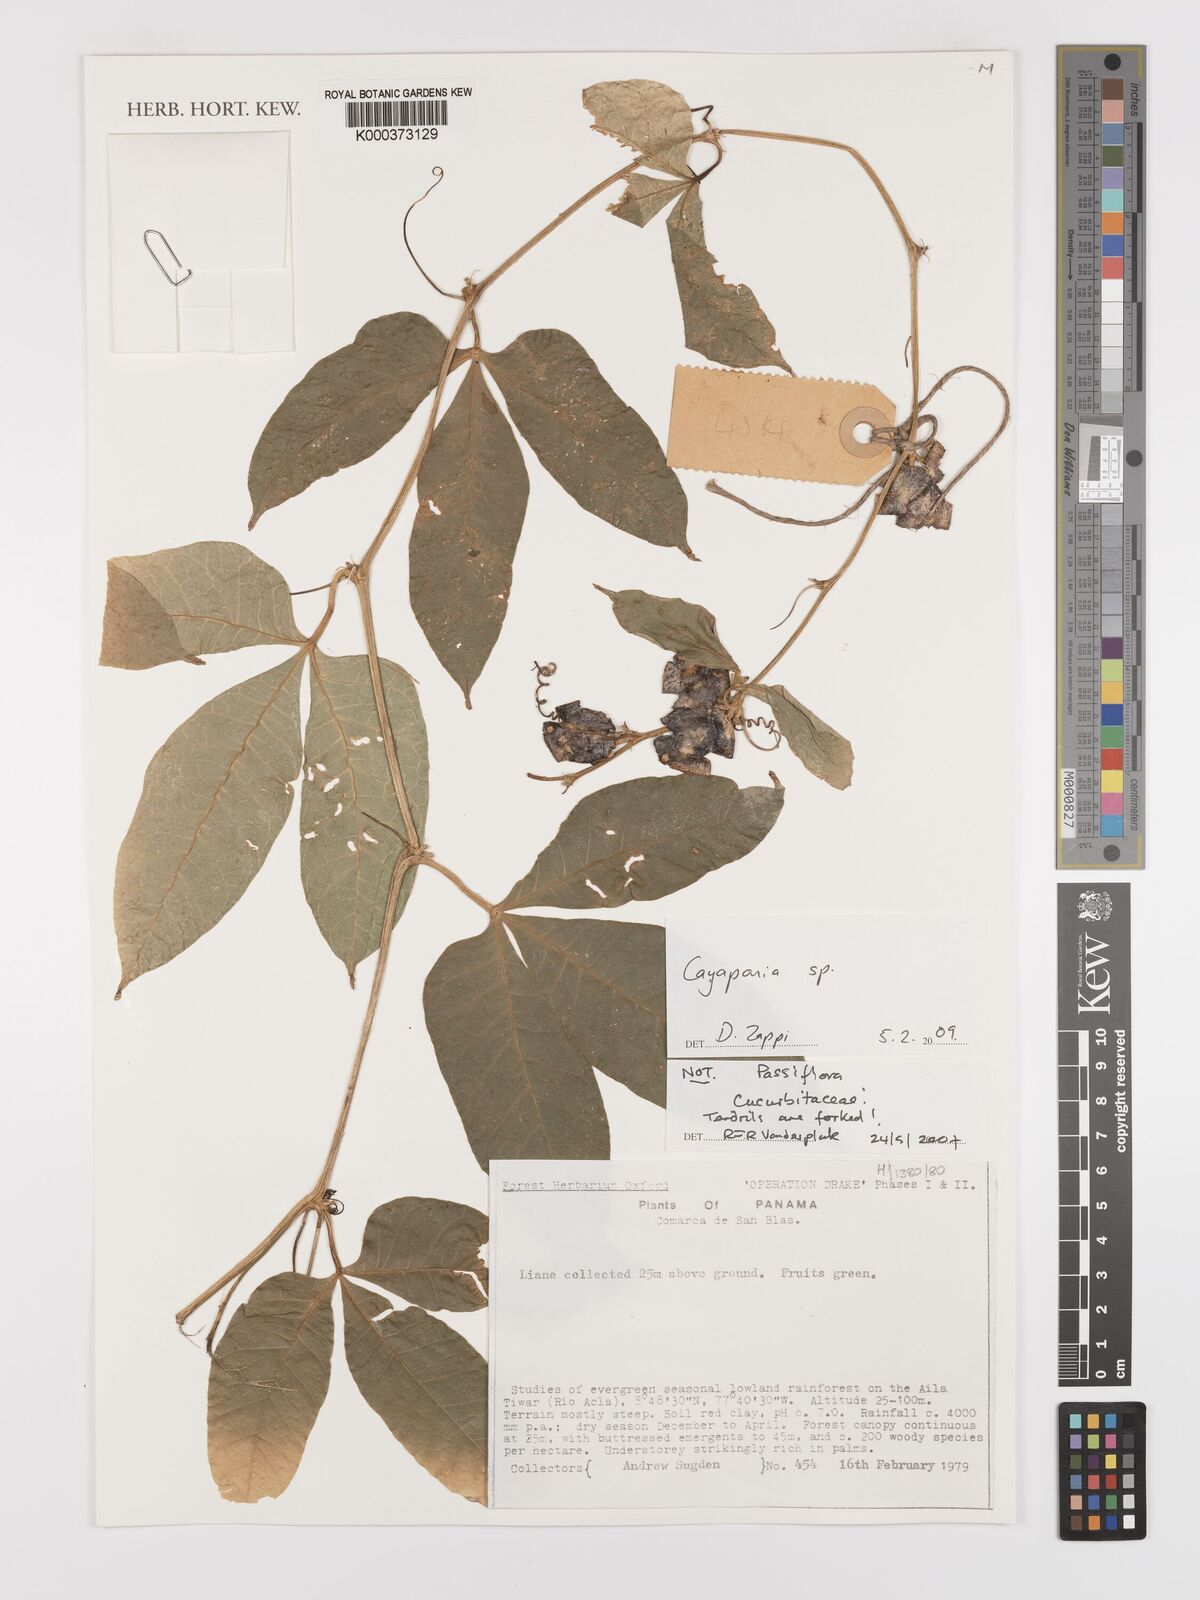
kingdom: Plantae
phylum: Tracheophyta
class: Magnoliopsida
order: Cucurbitales
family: Cucurbitaceae
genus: Cayaponia
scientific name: Cayaponia
